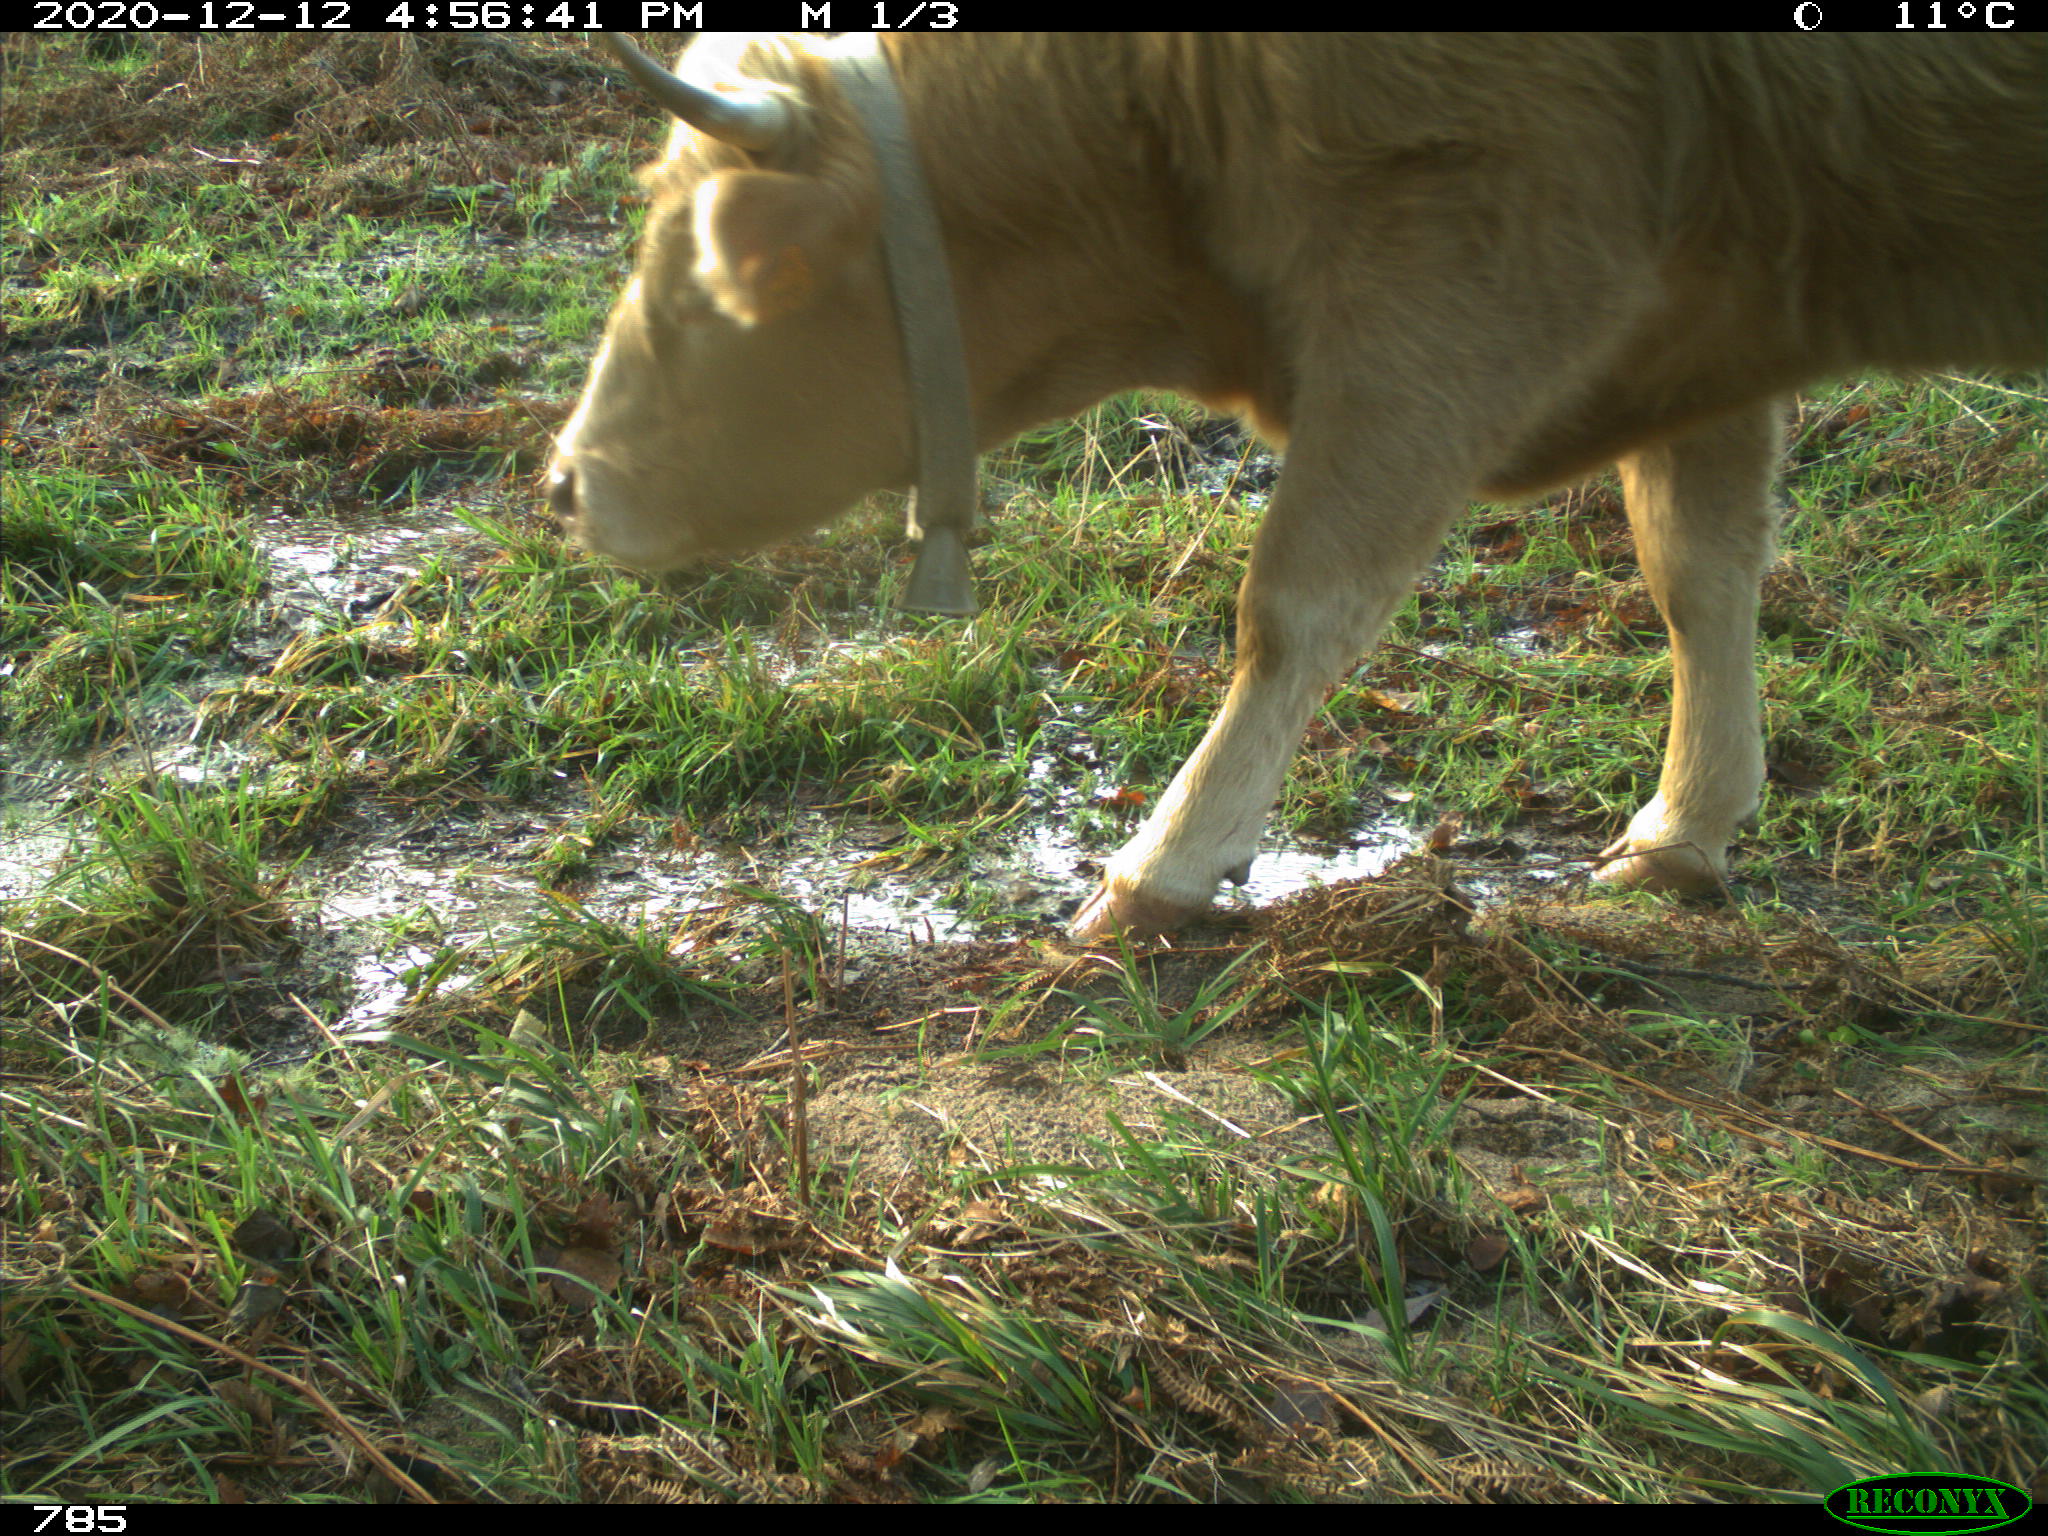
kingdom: Animalia
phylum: Chordata
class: Mammalia
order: Artiodactyla
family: Bovidae
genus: Bos
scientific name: Bos taurus
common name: Domesticated cattle
